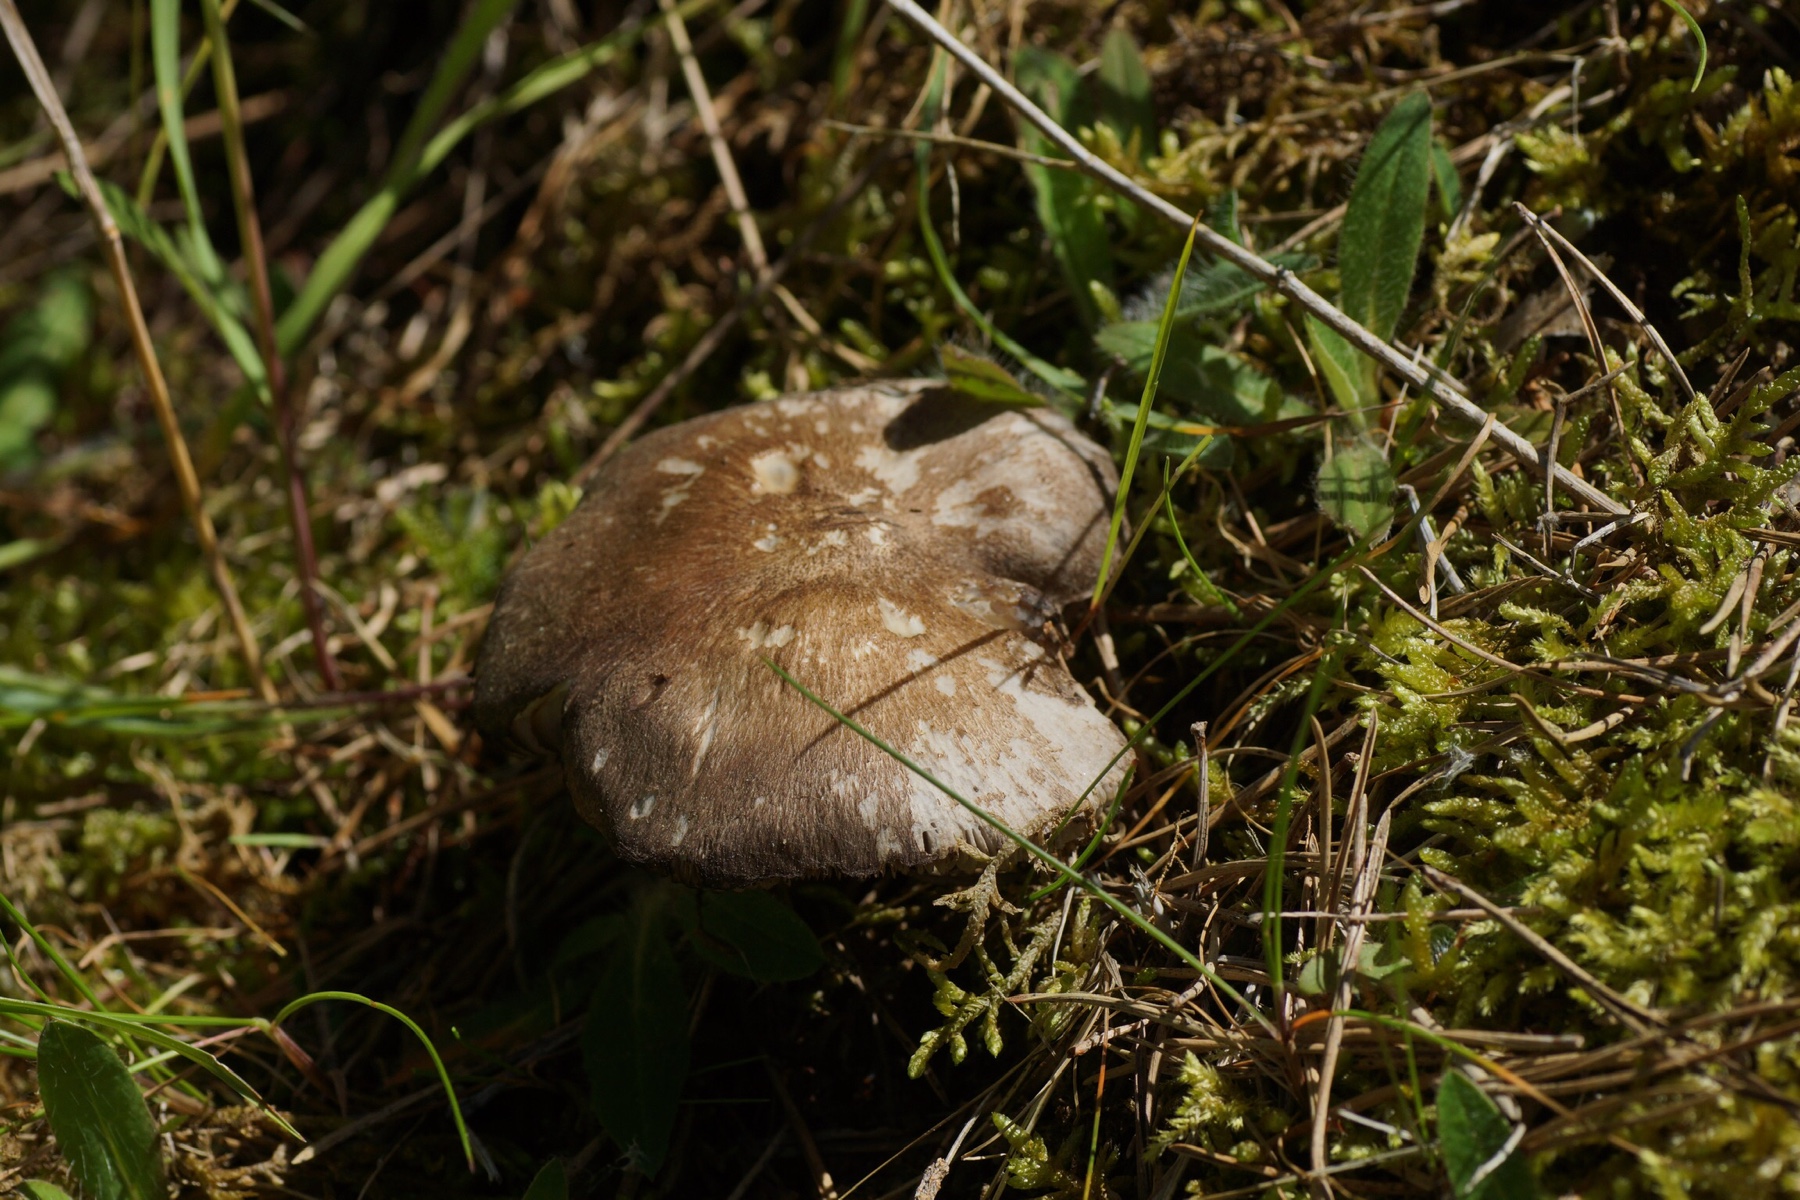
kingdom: Fungi
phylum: Basidiomycota
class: Agaricomycetes
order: Agaricales
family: Tricholomataceae
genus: Tricholoma
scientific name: Tricholoma terreum
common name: jordfarvet ridderhat
